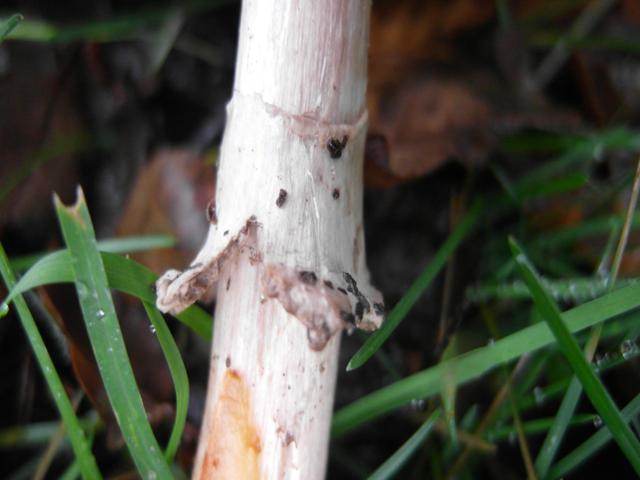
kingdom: Fungi
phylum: Basidiomycota
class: Agaricomycetes
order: Agaricales
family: Agaricaceae
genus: Chlorophyllum
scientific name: Chlorophyllum brunneum
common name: giftig rabarberhat
